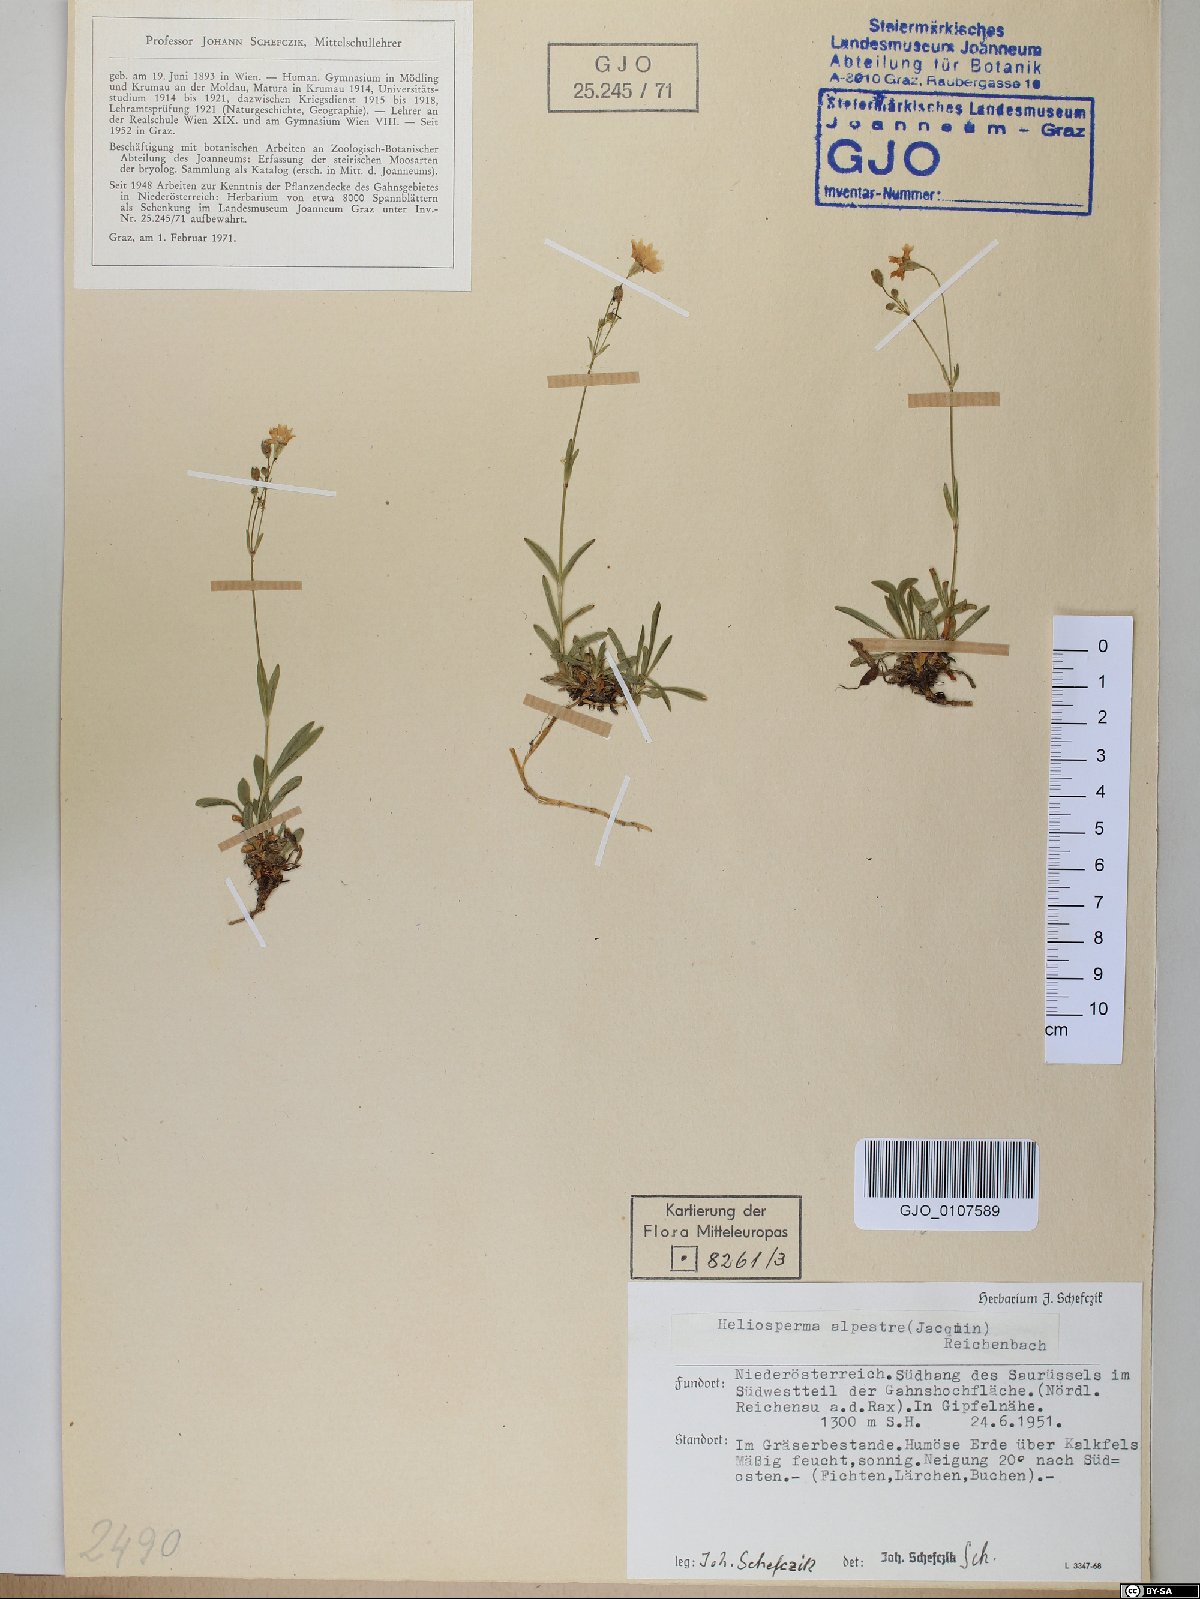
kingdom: Plantae
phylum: Tracheophyta
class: Magnoliopsida
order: Caryophyllales
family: Caryophyllaceae
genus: Heliosperma
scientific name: Heliosperma alpestre
